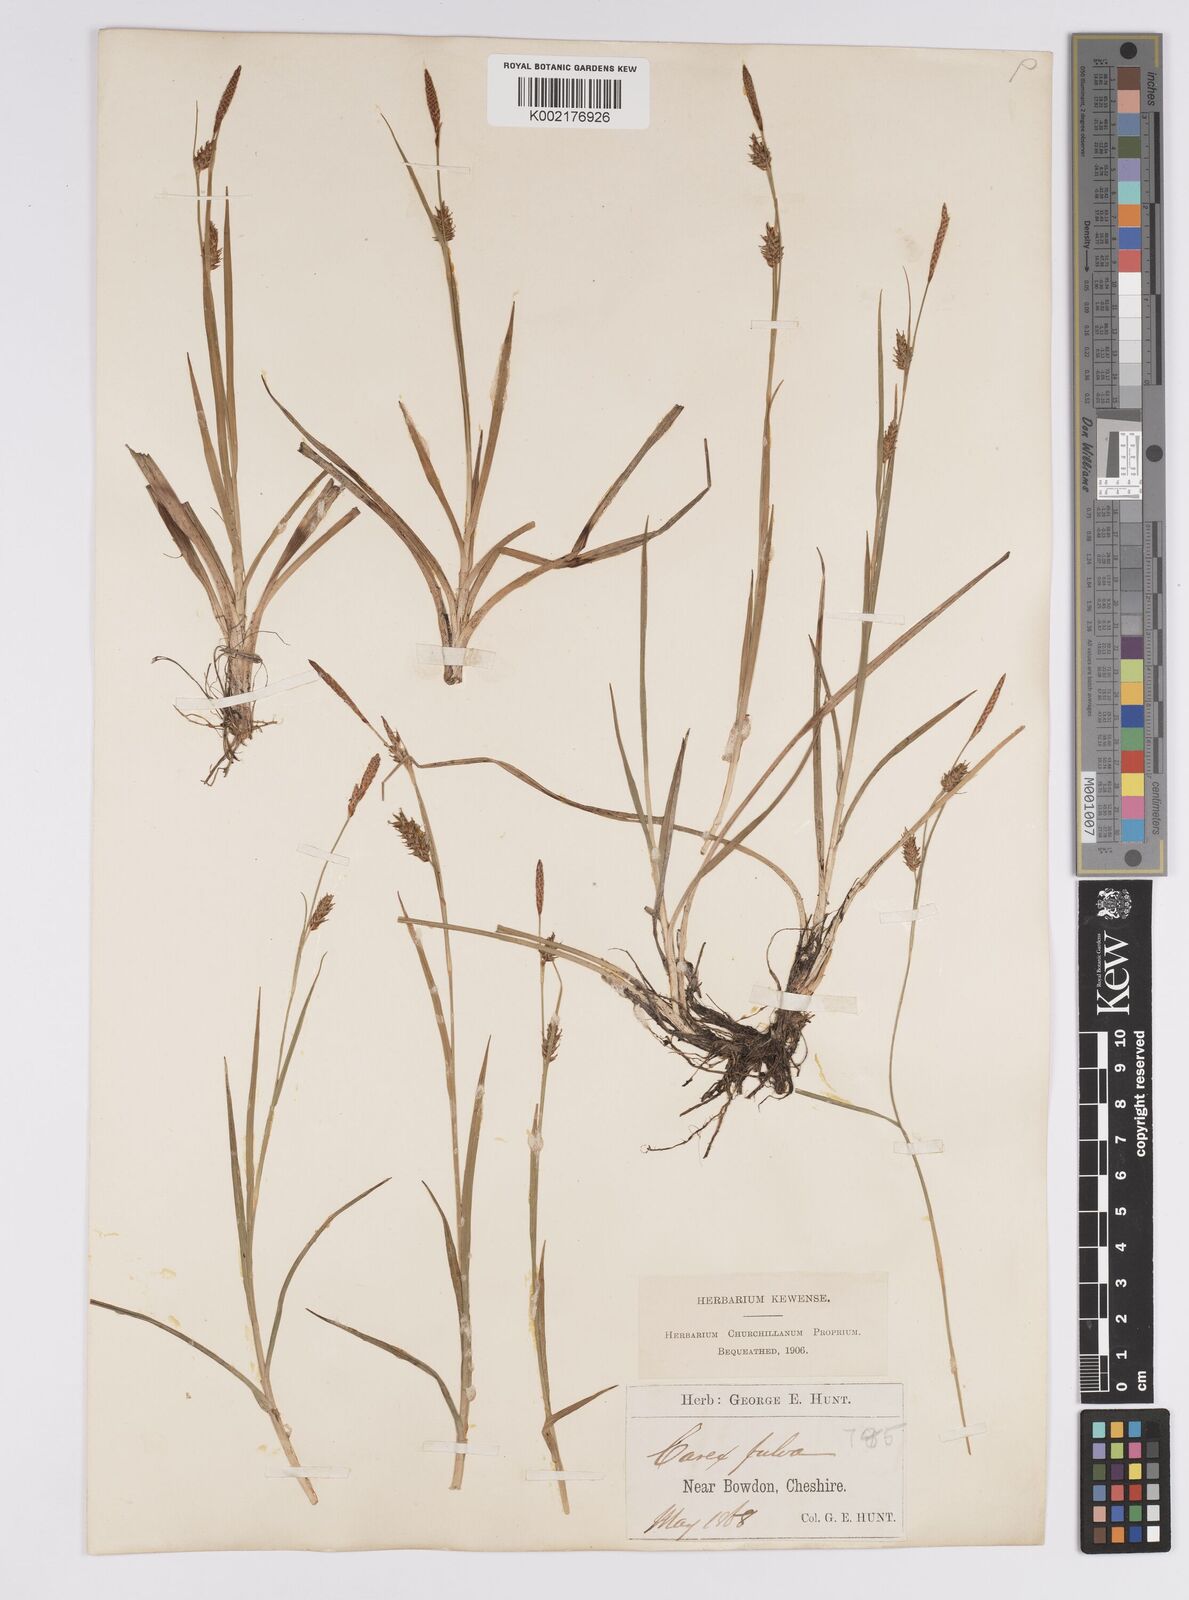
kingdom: Plantae
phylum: Tracheophyta
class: Liliopsida
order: Poales
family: Cyperaceae
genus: Carex
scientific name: Carex hostiana
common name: Tawny sedge
